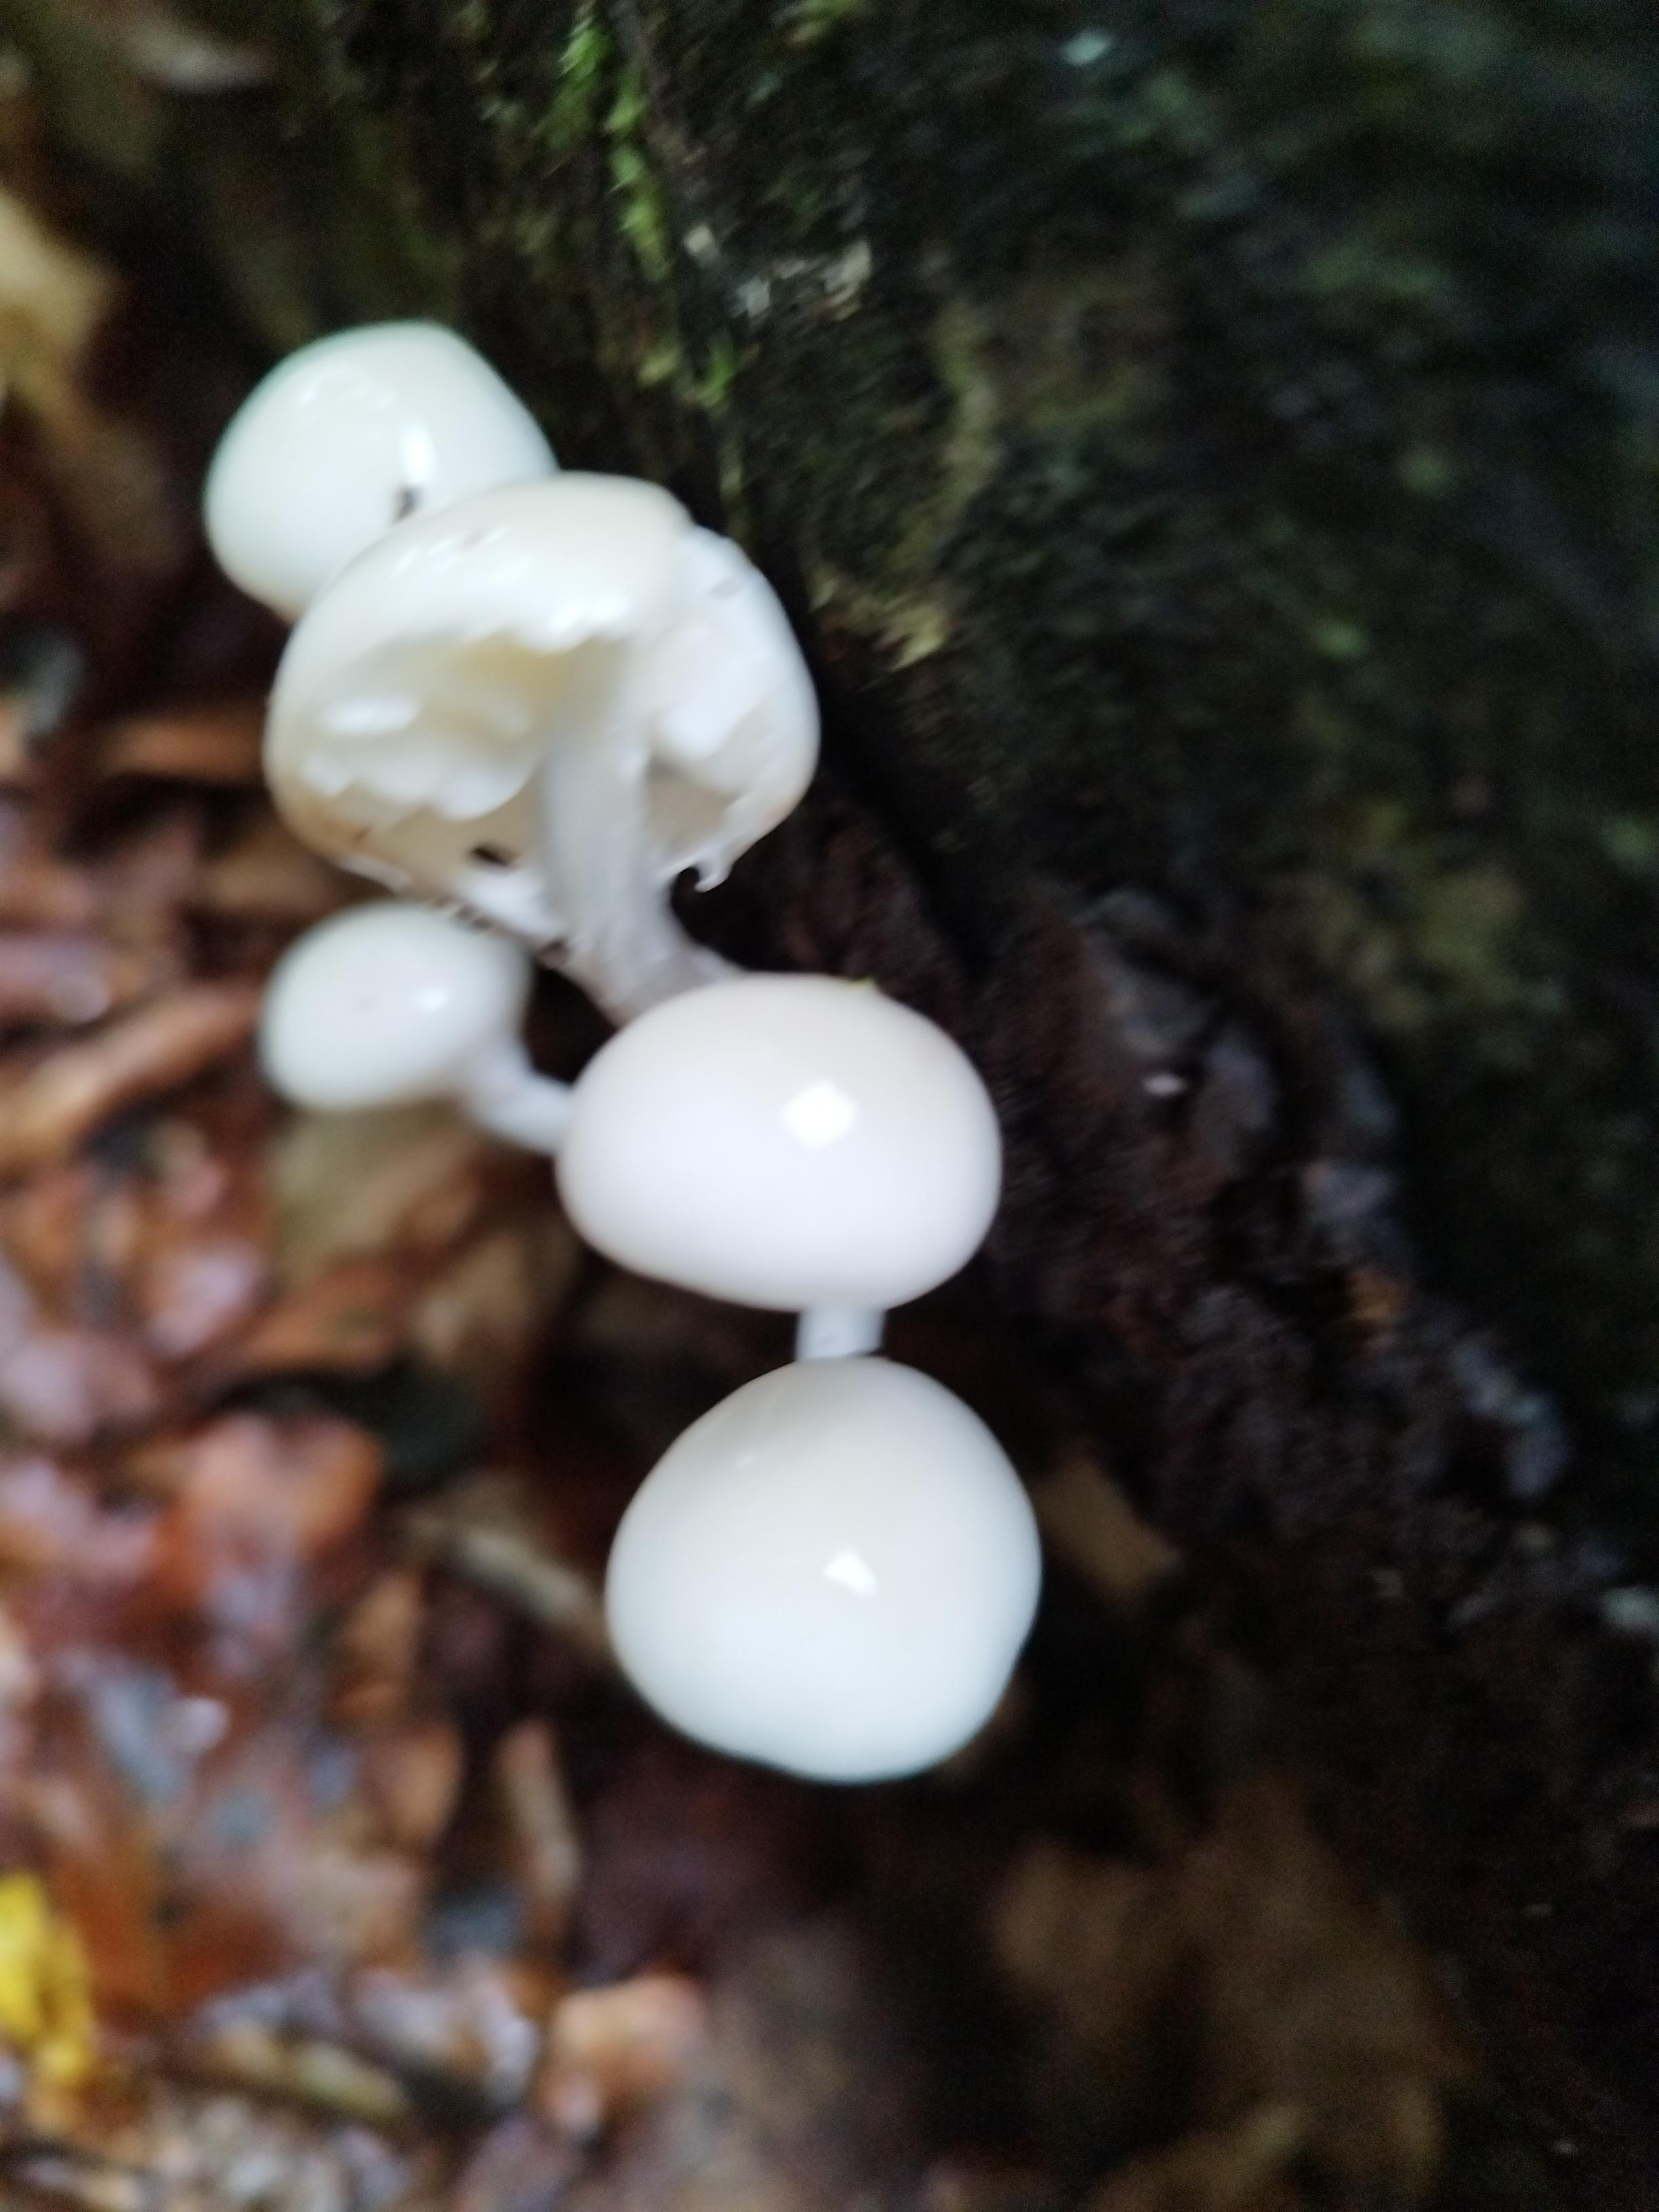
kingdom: Fungi
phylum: Basidiomycota
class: Agaricomycetes
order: Agaricales
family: Physalacriaceae
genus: Mucidula
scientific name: Mucidula mucida
